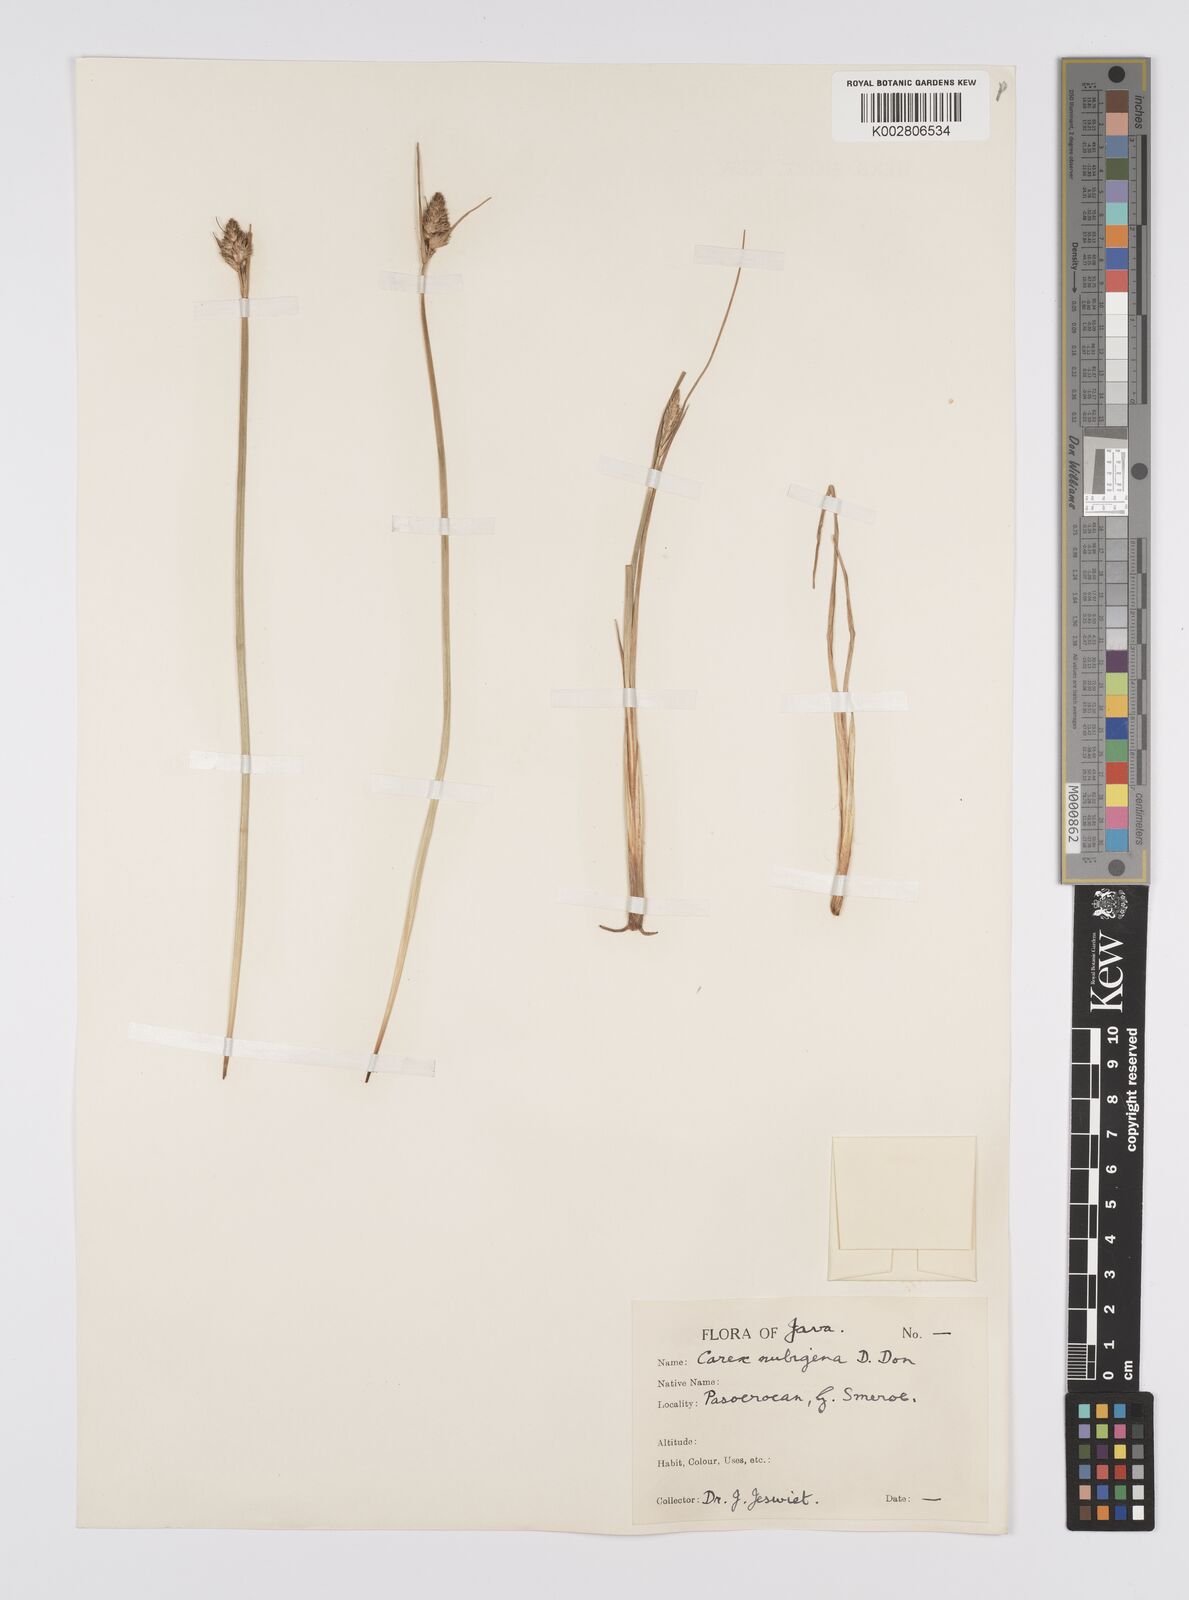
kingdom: Plantae
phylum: Tracheophyta
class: Liliopsida
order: Poales
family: Cyperaceae
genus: Carex
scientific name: Carex
